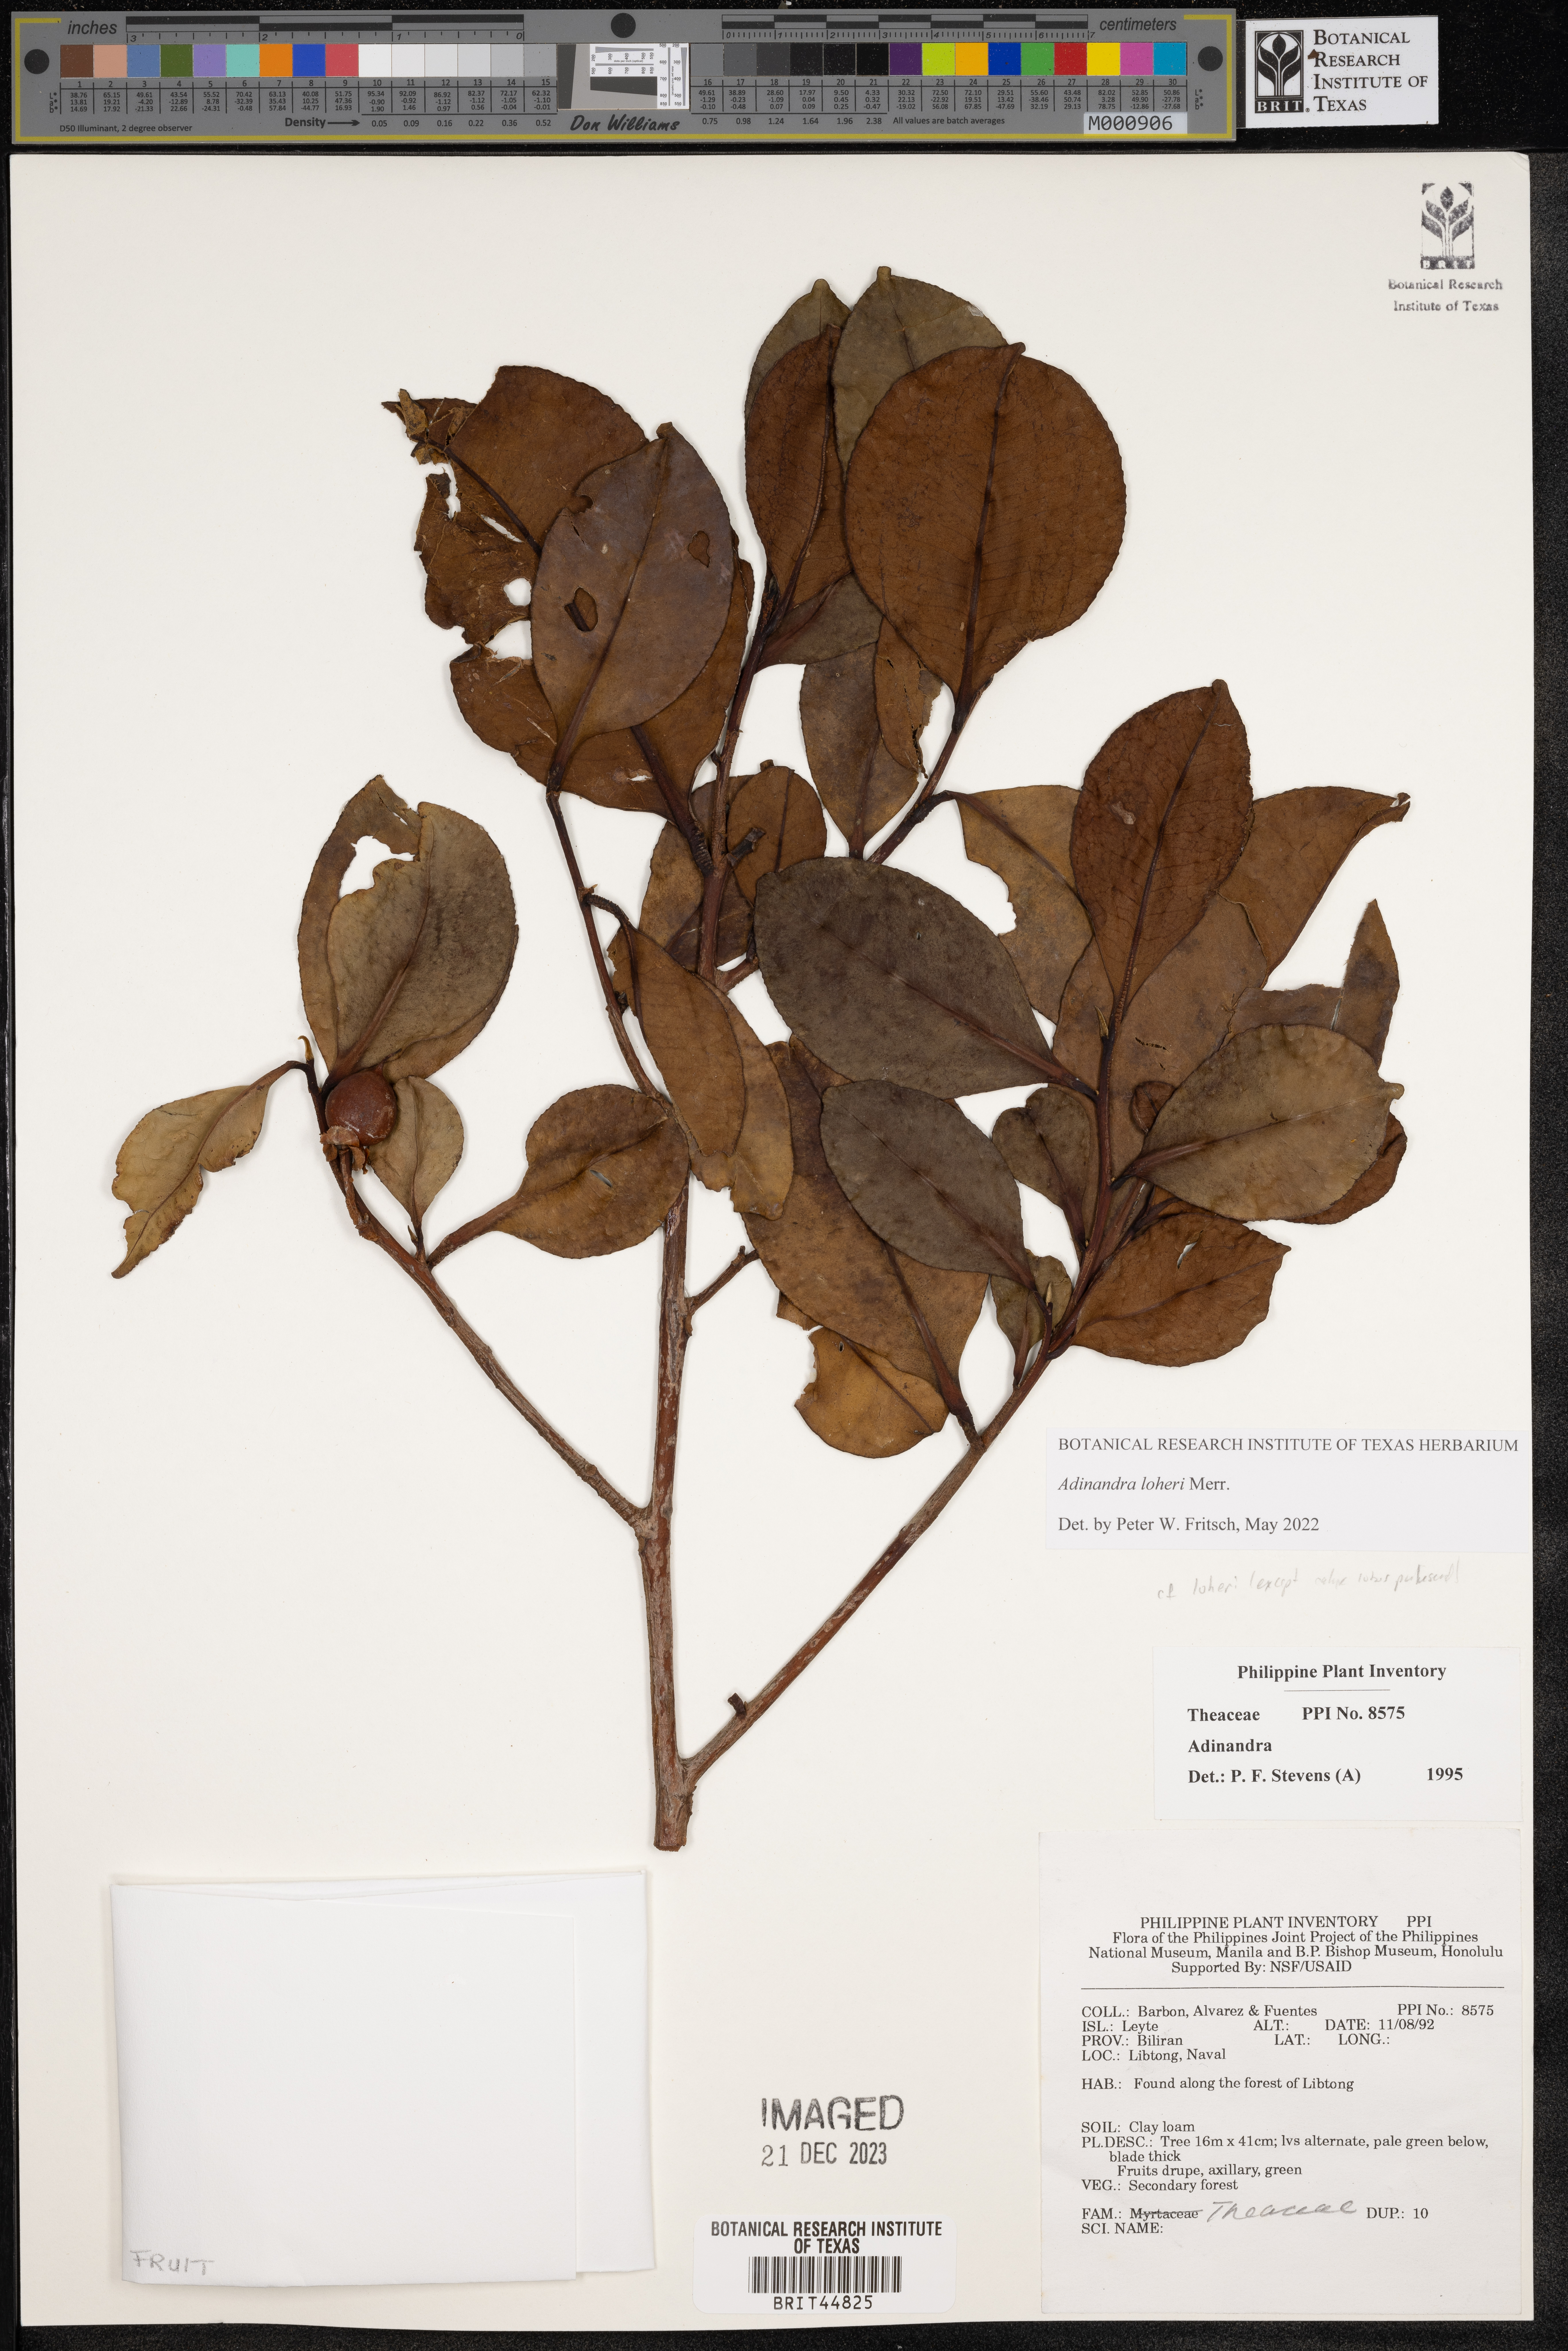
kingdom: Plantae
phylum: Tracheophyta
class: Magnoliopsida
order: Ericales
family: Pentaphylacaceae
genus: Adinandra
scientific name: Adinandra
